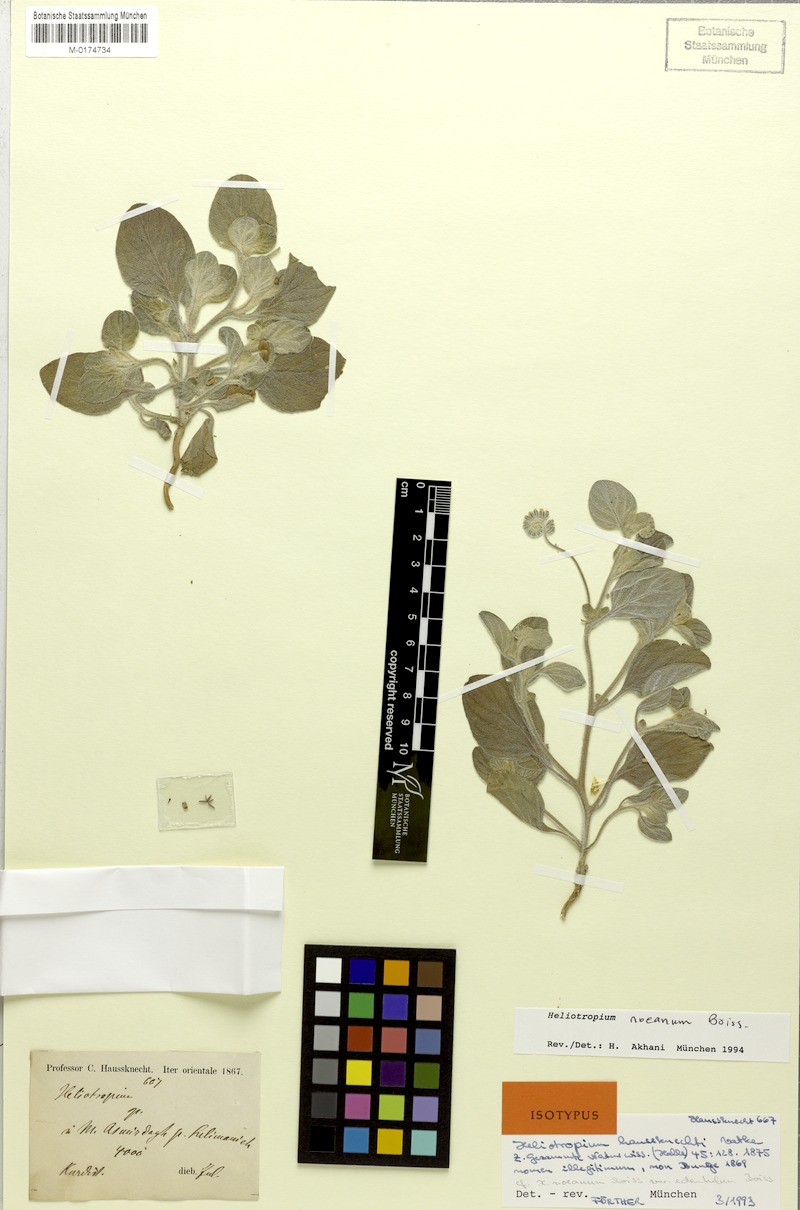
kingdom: Plantae
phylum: Tracheophyta
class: Magnoliopsida
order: Boraginales
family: Heliotropiaceae
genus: Heliotropium
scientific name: Heliotropium noeanum
